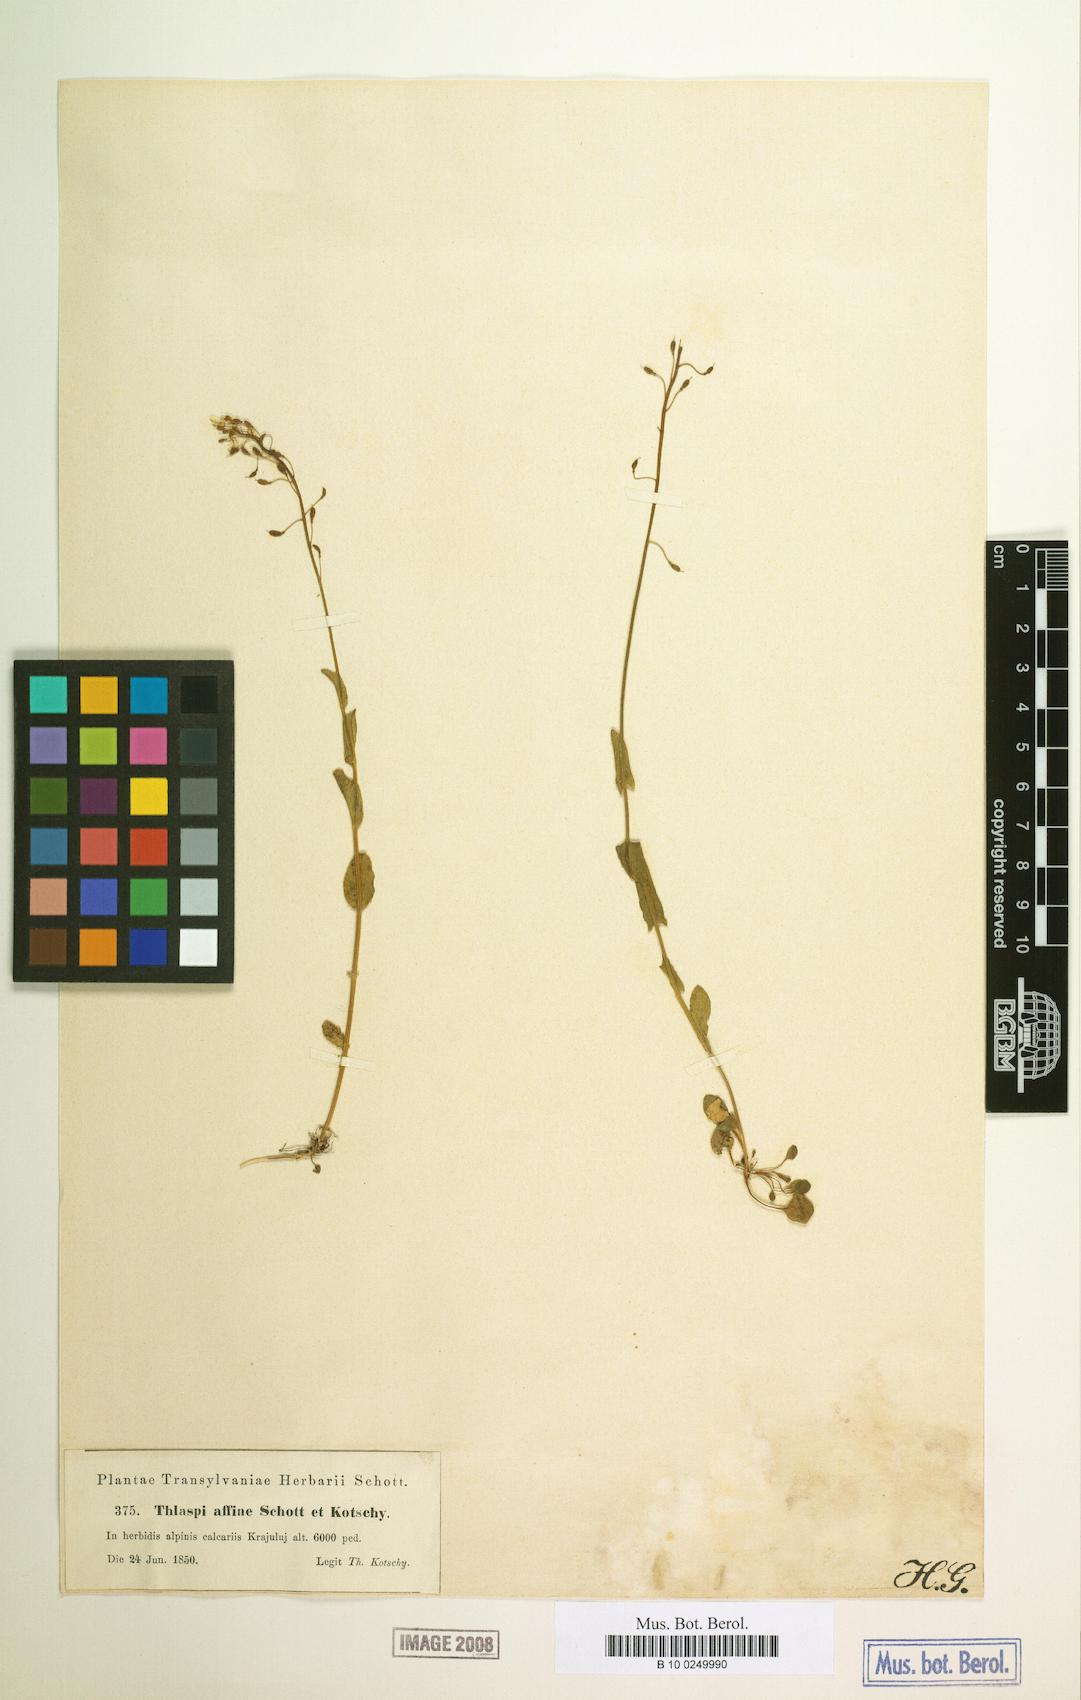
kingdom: Plantae
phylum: Tracheophyta
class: Magnoliopsida
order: Brassicales
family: Brassicaceae
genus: Noccaea
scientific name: Noccaea kovatsii
